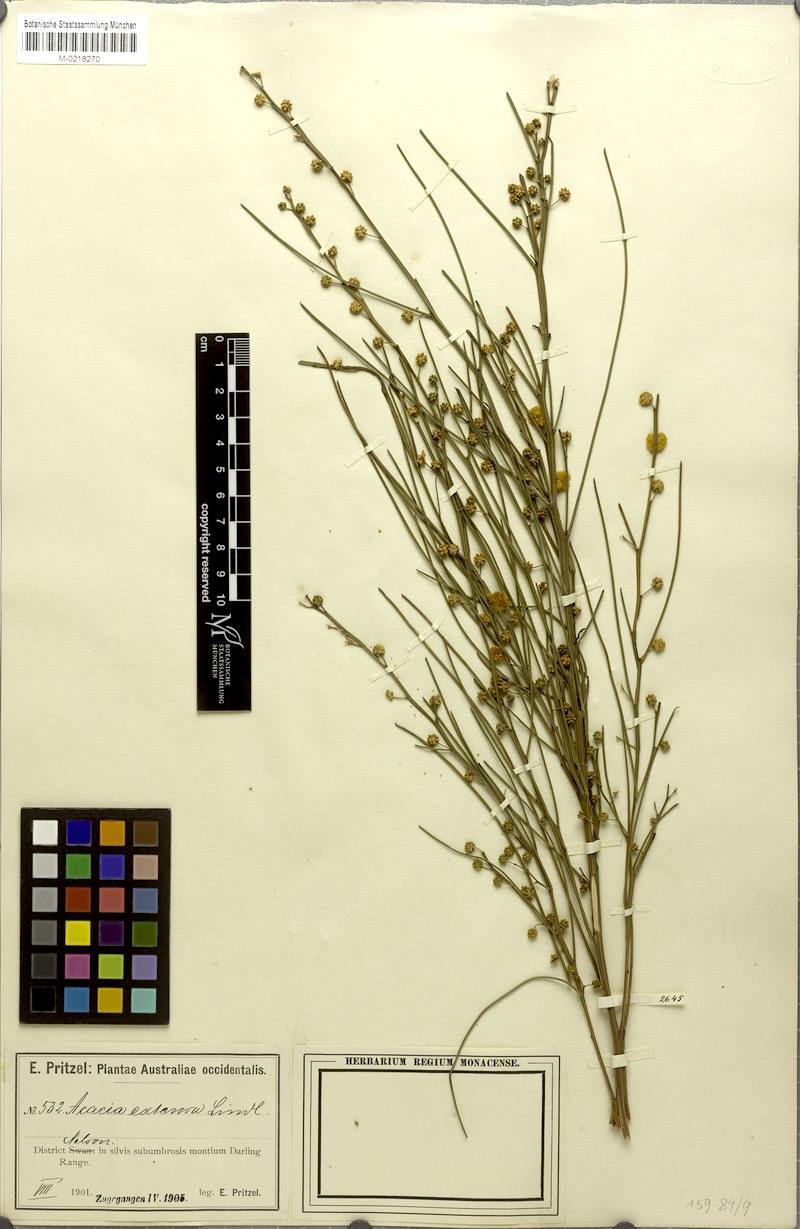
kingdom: Plantae
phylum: Tracheophyta
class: Magnoliopsida
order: Fabales
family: Fabaceae
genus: Acacia
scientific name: Acacia extensa
